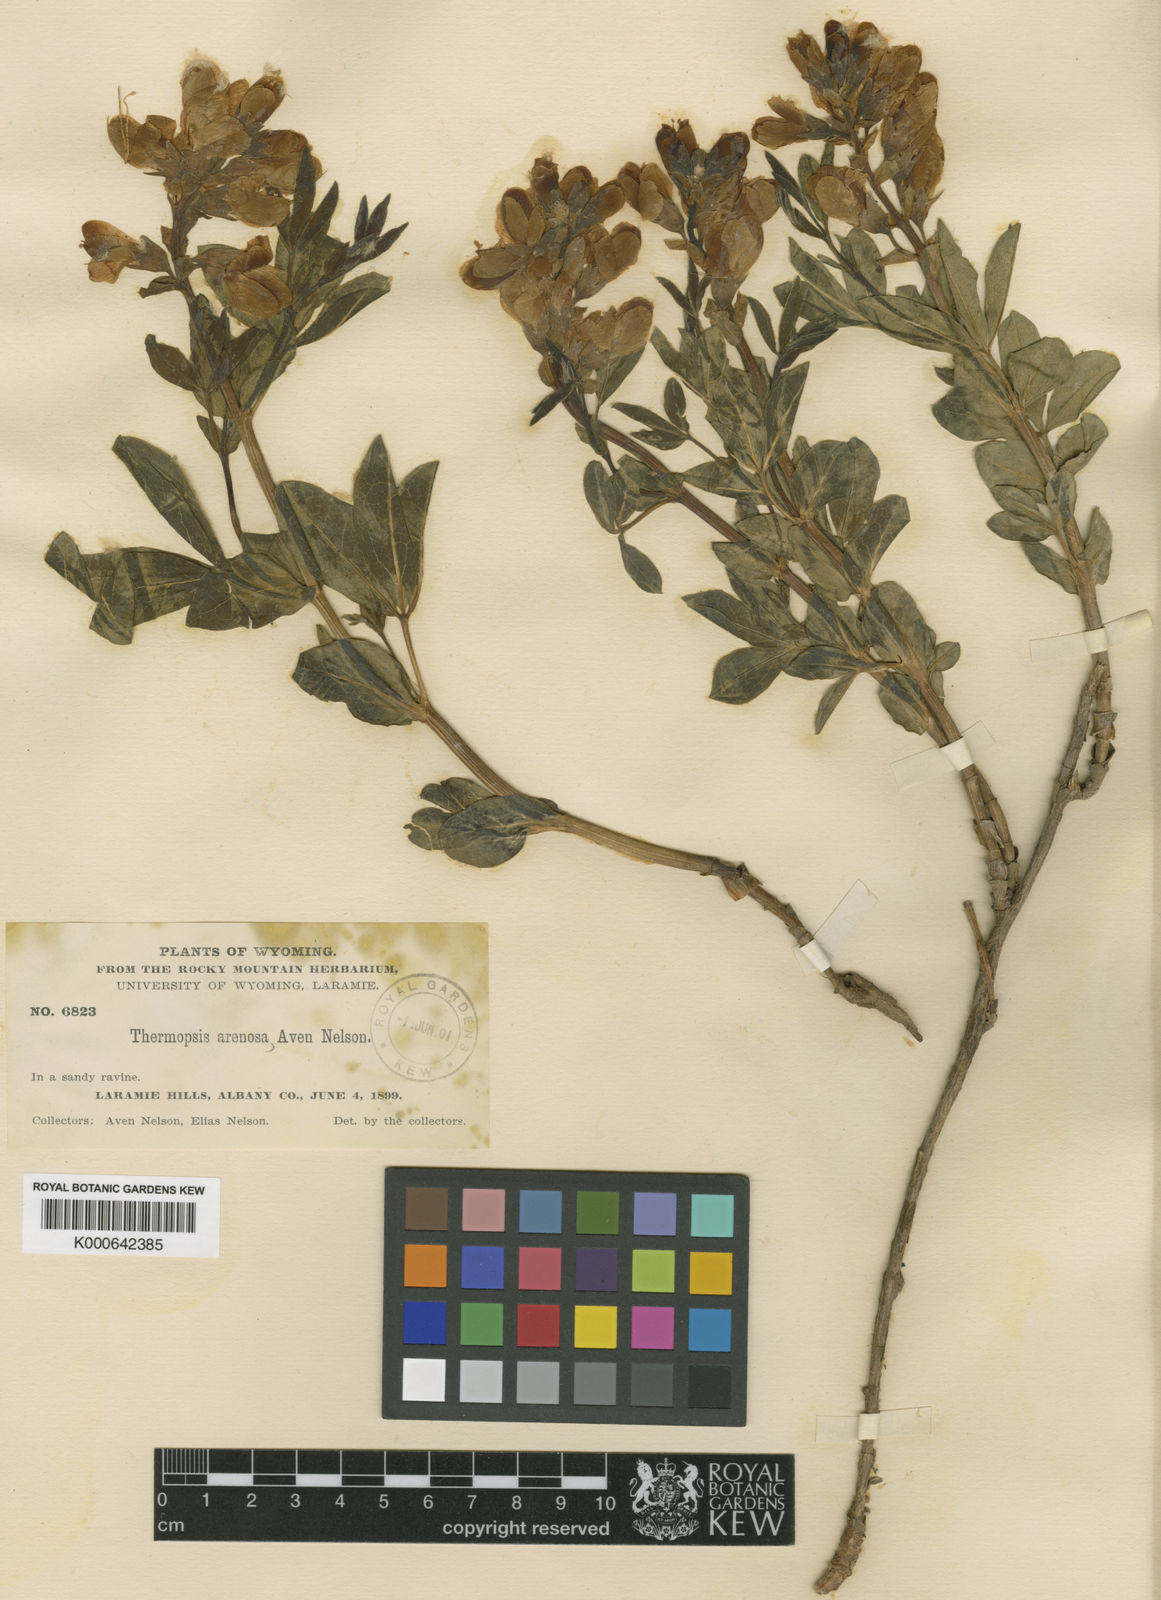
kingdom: Plantae
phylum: Tracheophyta
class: Magnoliopsida
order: Fabales
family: Fabaceae
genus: Thermopsis
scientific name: Thermopsis rhombifolia
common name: Circle-pod-pea
